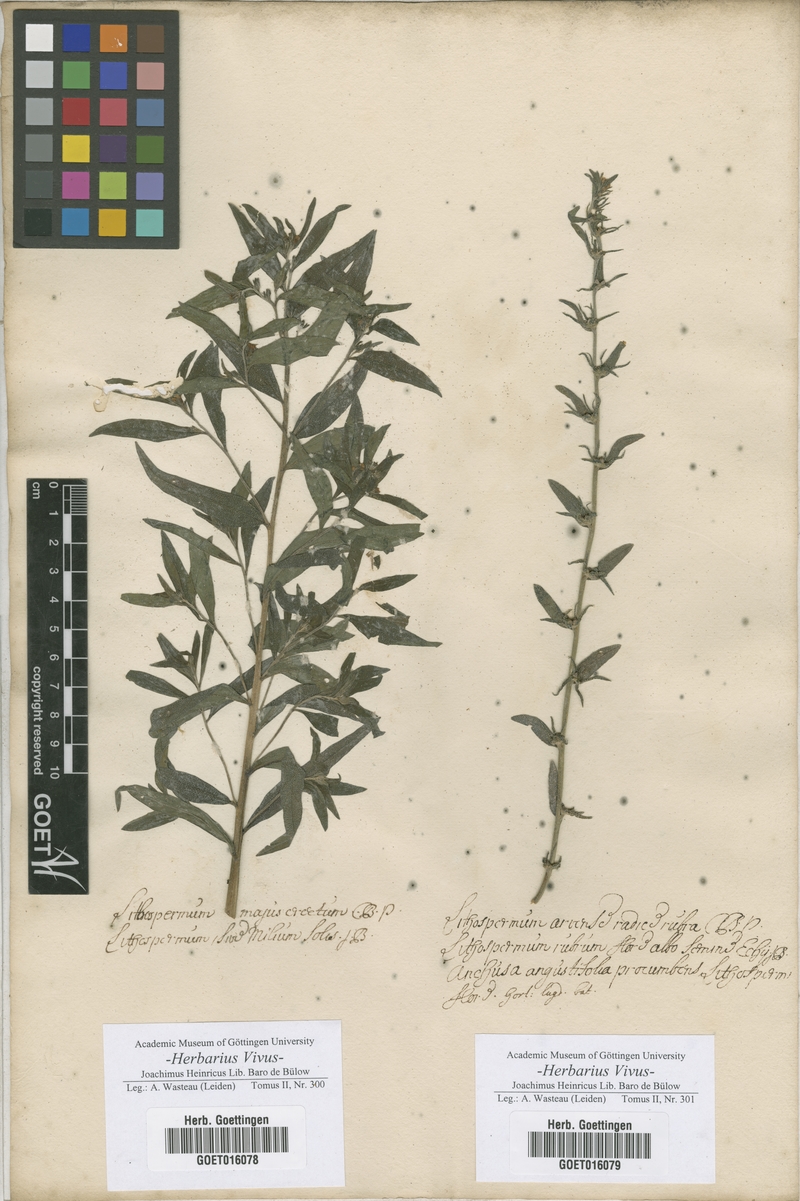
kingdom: Plantae
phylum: Tracheophyta
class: Magnoliopsida
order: Boraginales
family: Boraginaceae
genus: Lithospermum
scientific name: Lithospermum officinale
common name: Common gromwell
